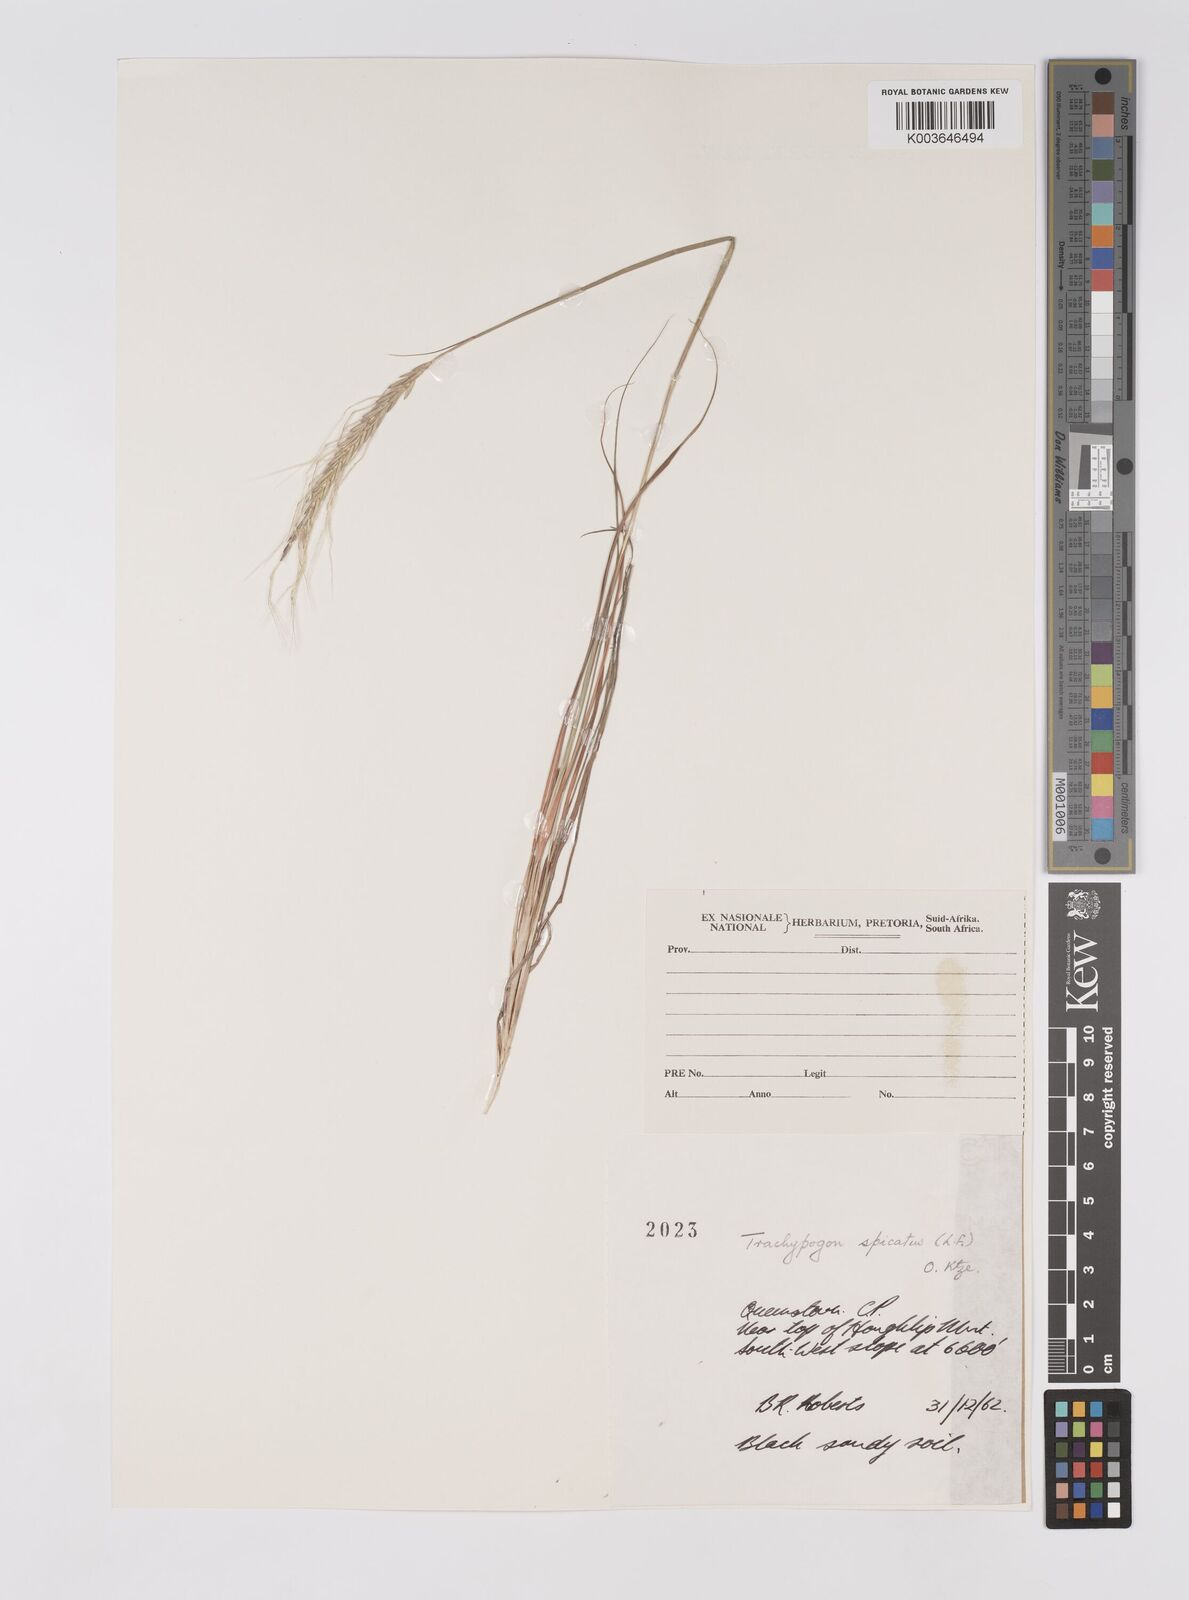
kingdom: Plantae
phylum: Tracheophyta
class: Liliopsida
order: Poales
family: Poaceae
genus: Trachypogon
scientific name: Trachypogon spicatus
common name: Crinkle-awn
